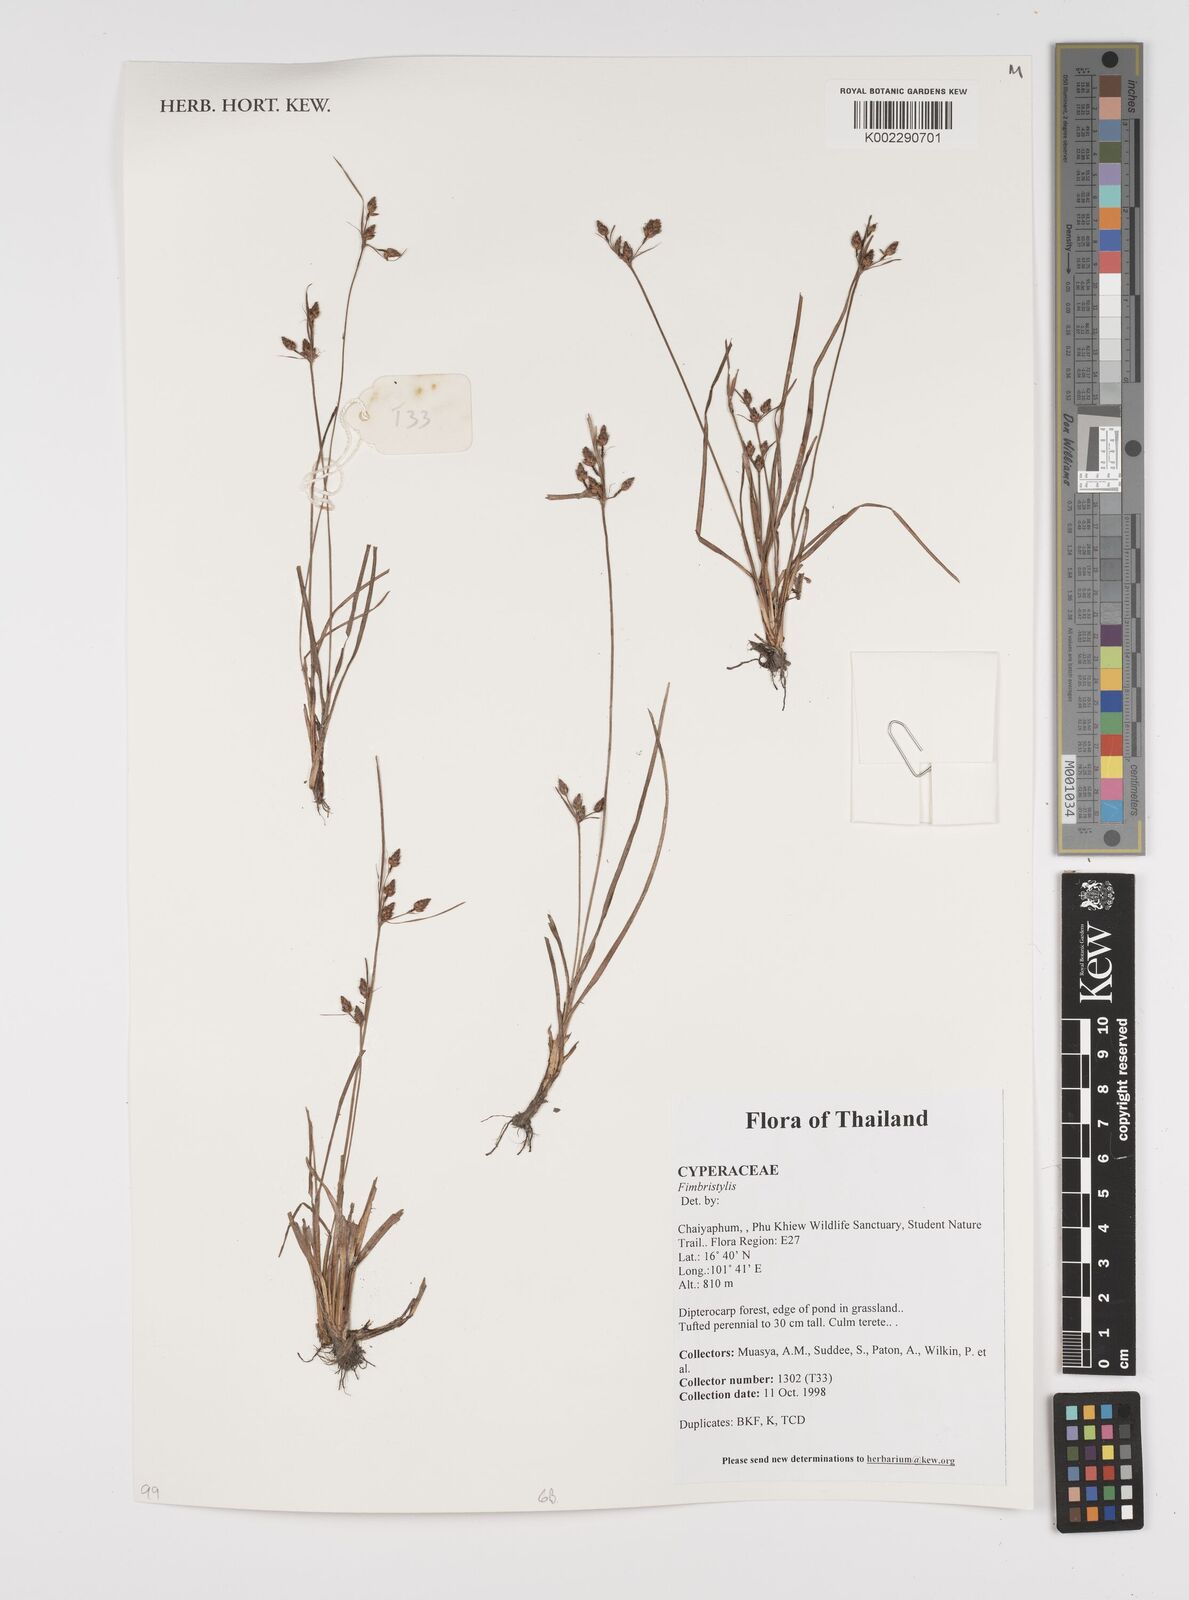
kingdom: Plantae
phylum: Tracheophyta
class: Liliopsida
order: Poales
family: Cyperaceae
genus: Fimbristylis
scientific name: Fimbristylis
